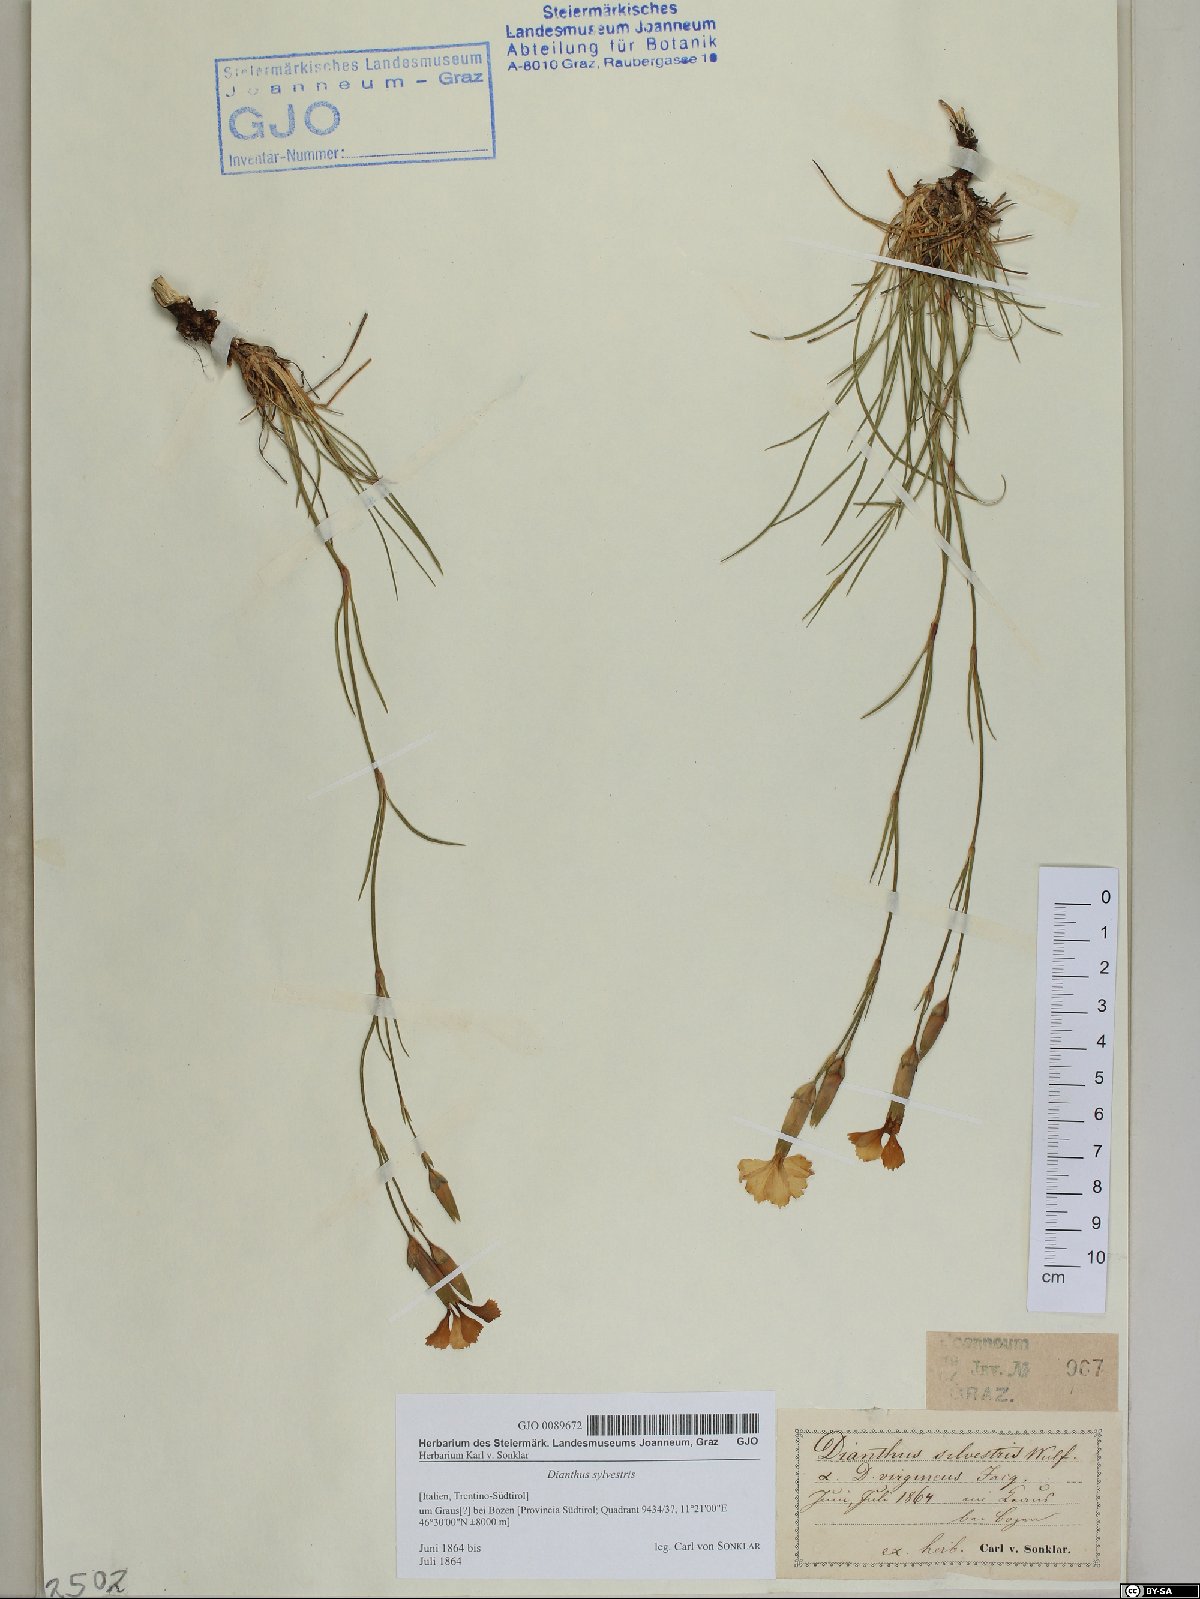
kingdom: Plantae
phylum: Tracheophyta
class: Magnoliopsida
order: Caryophyllales
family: Caryophyllaceae
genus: Dianthus
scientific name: Dianthus sylvestris
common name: Wood pink
